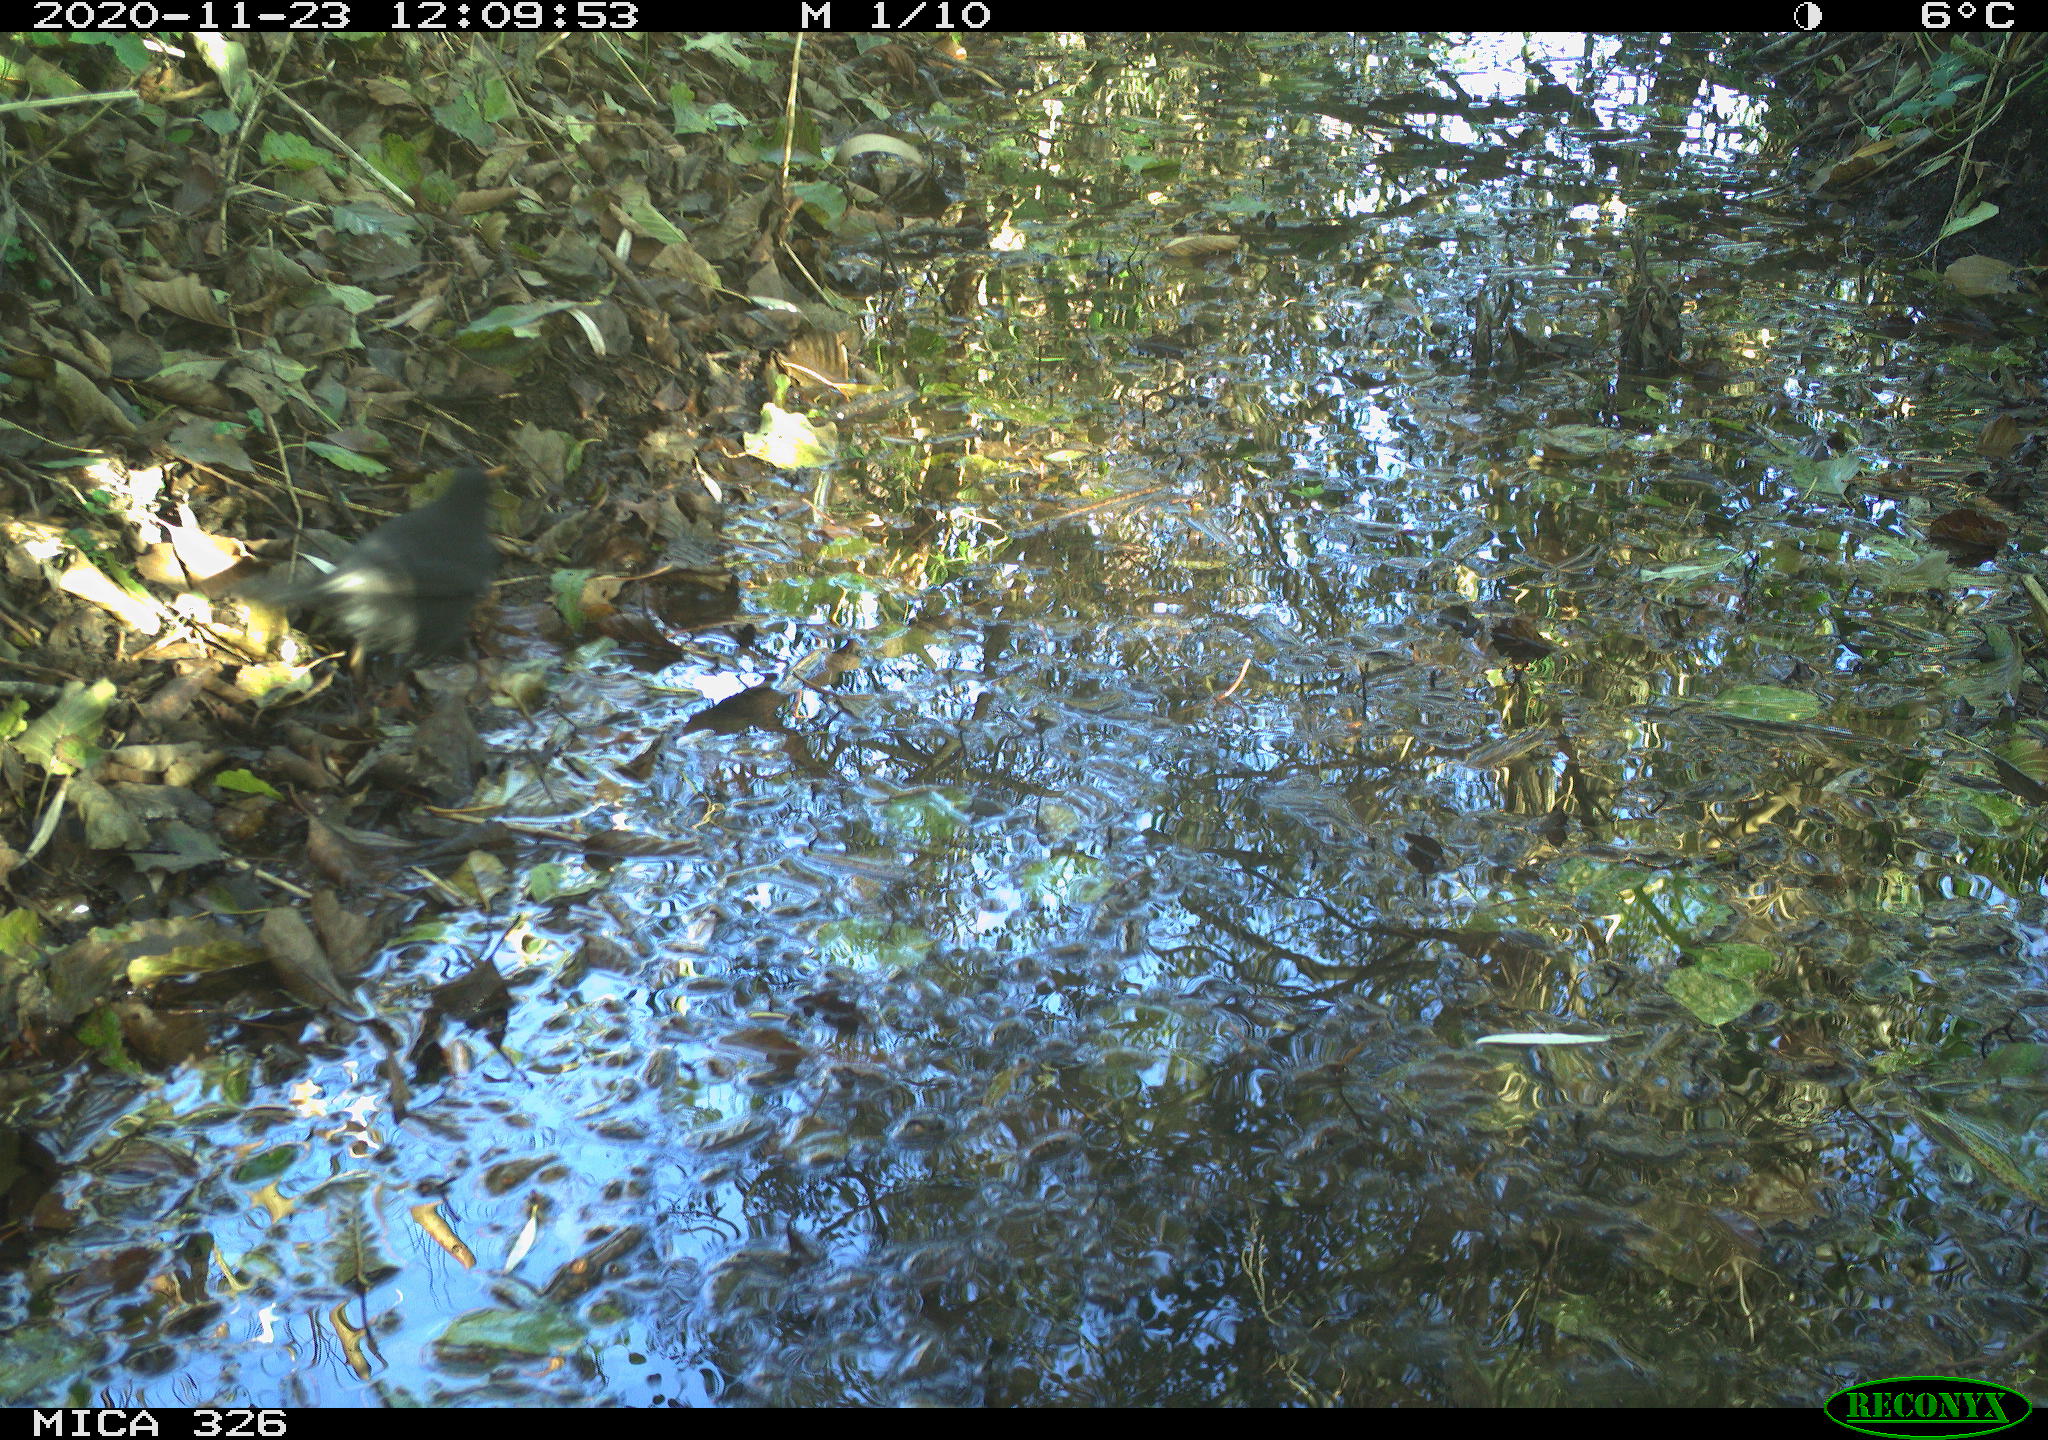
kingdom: Animalia
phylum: Chordata
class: Aves
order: Passeriformes
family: Turdidae
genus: Turdus
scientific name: Turdus merula
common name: Common blackbird
